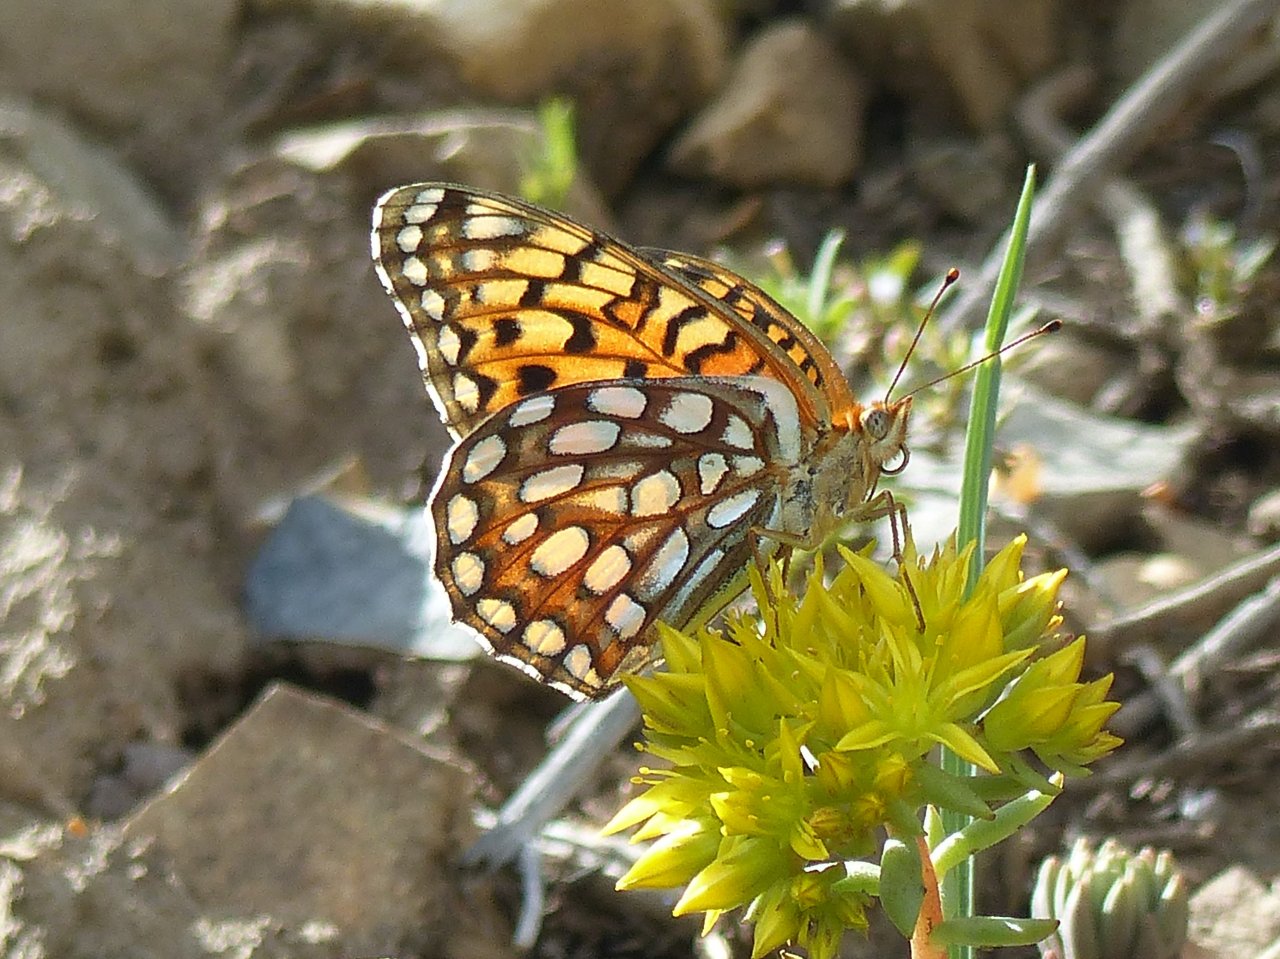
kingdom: Animalia
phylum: Arthropoda
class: Insecta
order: Lepidoptera
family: Nymphalidae
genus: Speyeria
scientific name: Speyeria edwardsii
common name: Edwards' Fritillary
